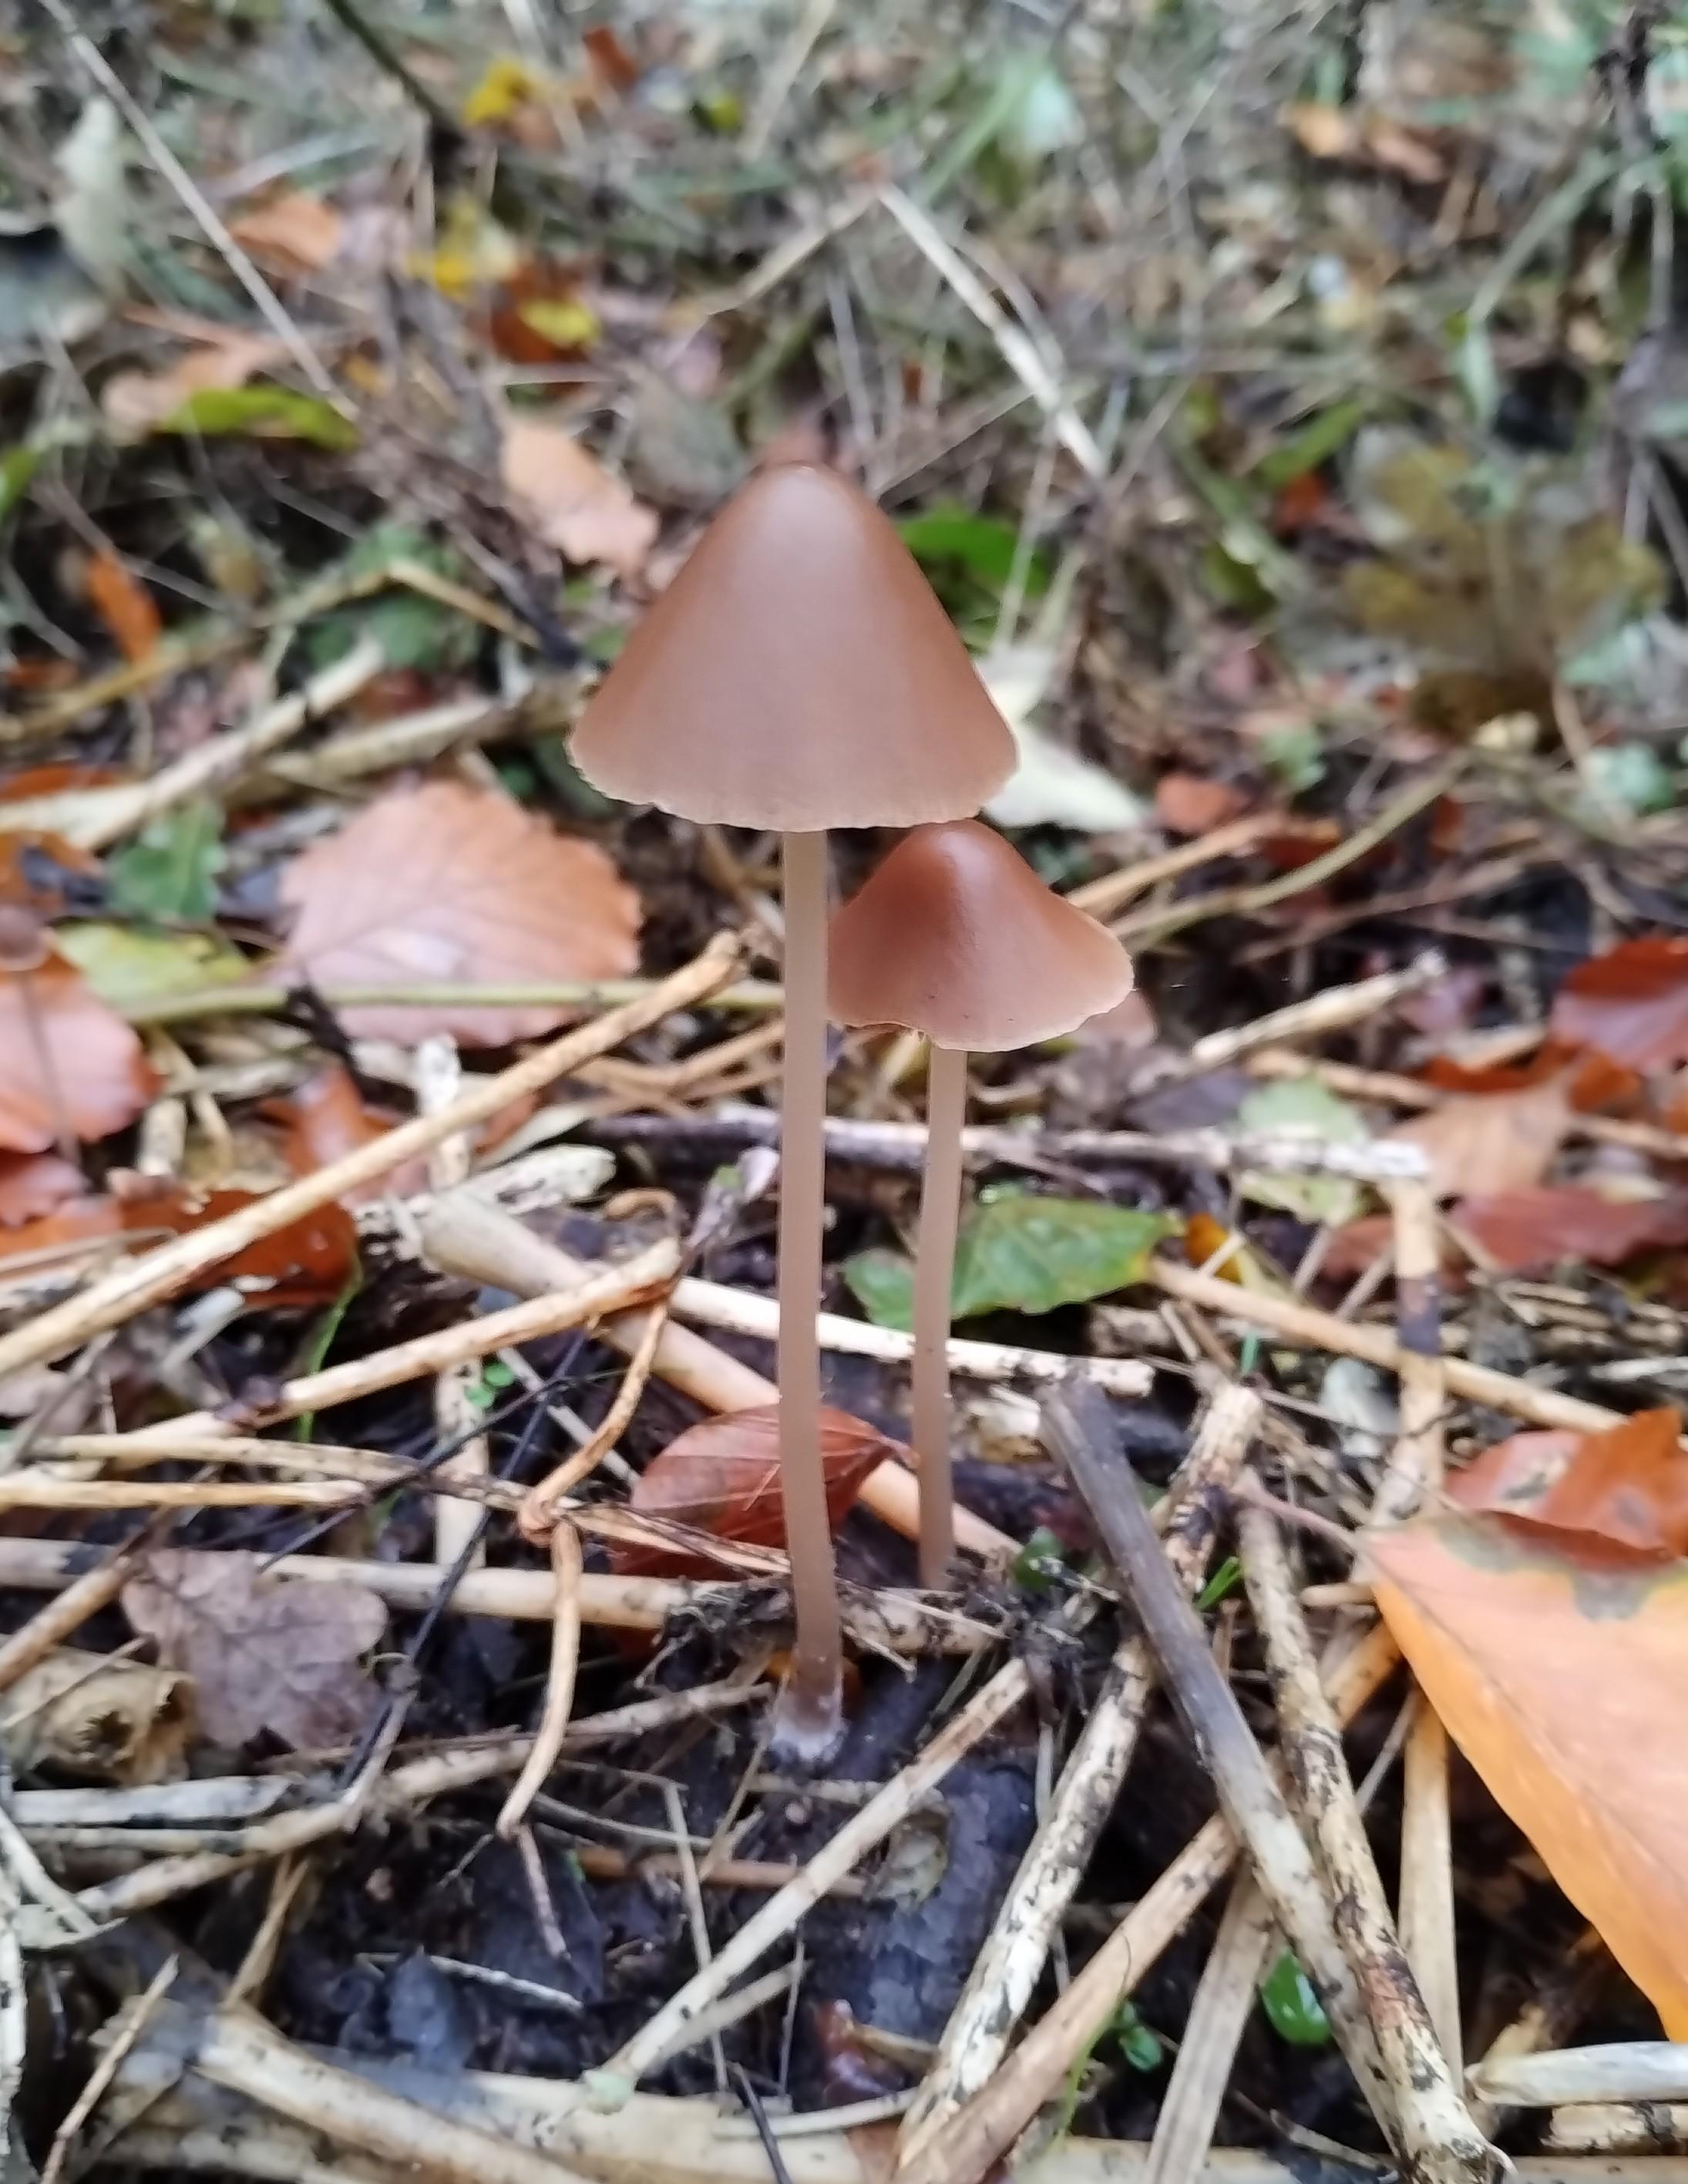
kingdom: Fungi
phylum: Basidiomycota
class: Agaricomycetes
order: Agaricales
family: Psathyrellaceae
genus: Parasola
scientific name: Parasola conopilea
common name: kegle-hjulhat
